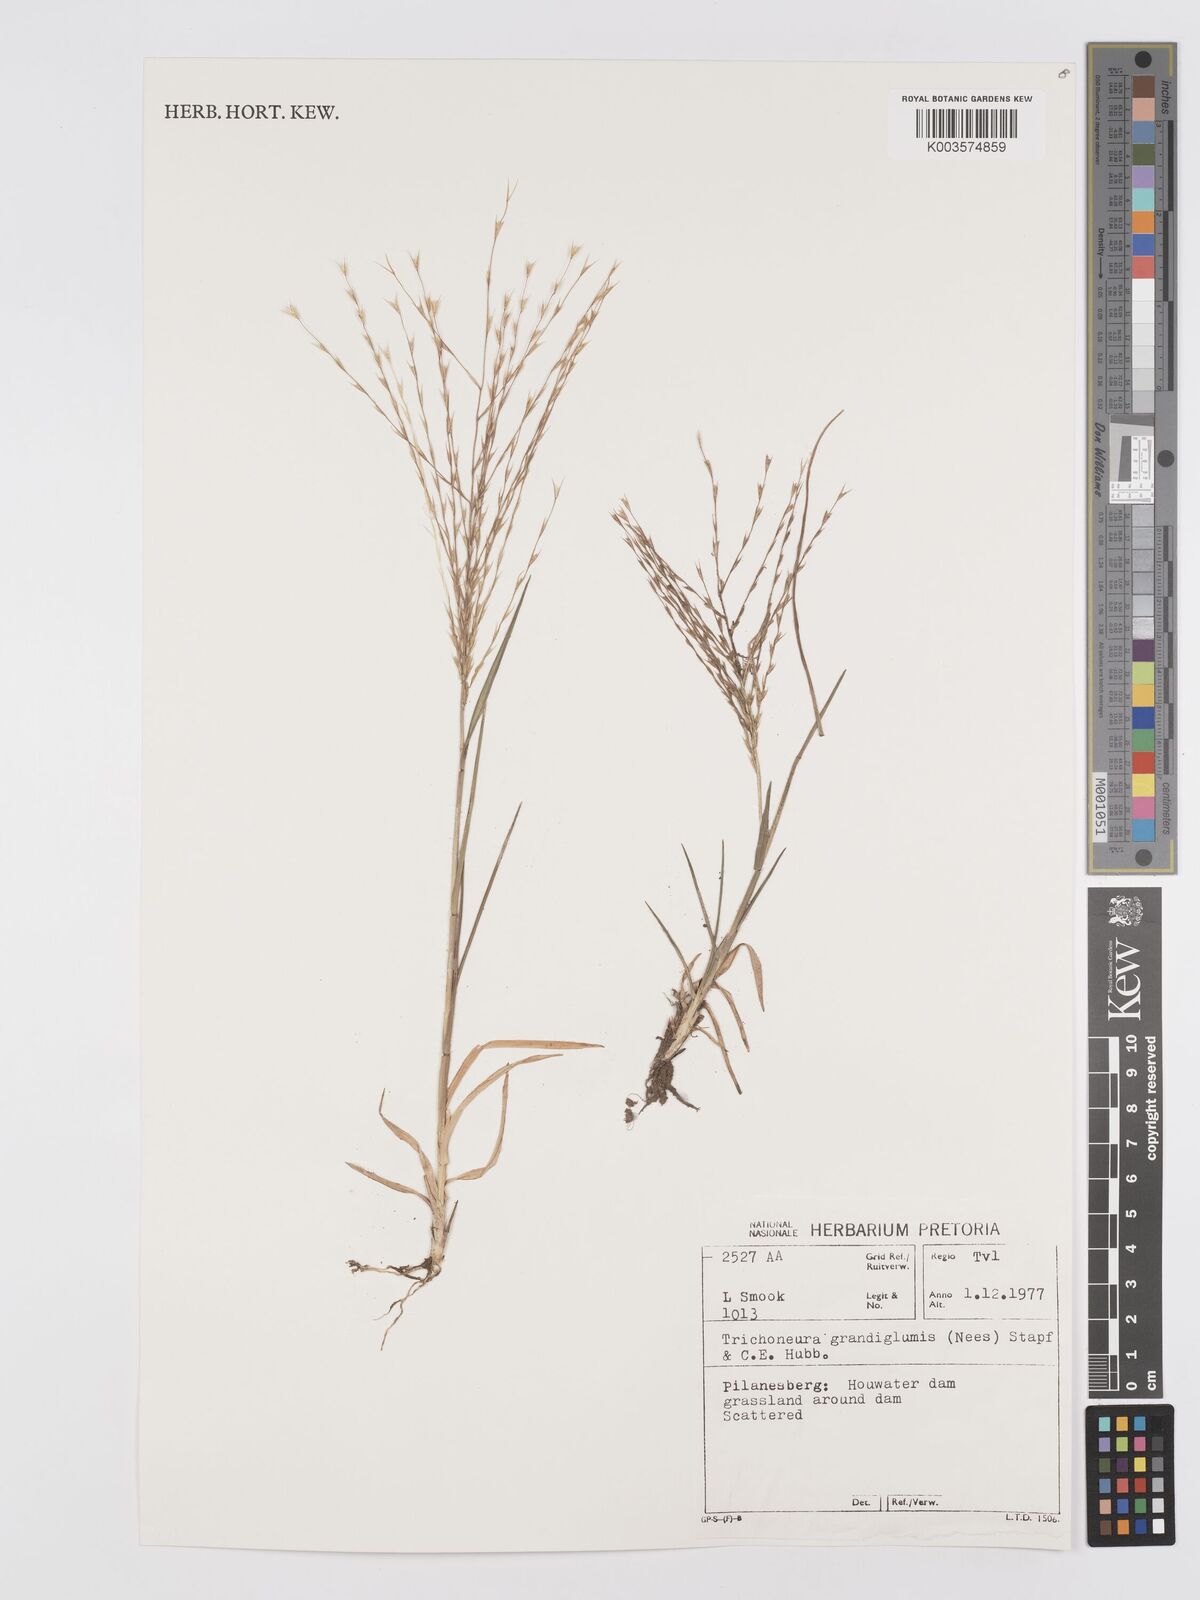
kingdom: Plantae
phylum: Tracheophyta
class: Liliopsida
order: Poales
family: Poaceae
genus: Trichoneura
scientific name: Trichoneura grandiglumis
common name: Rolling grass
